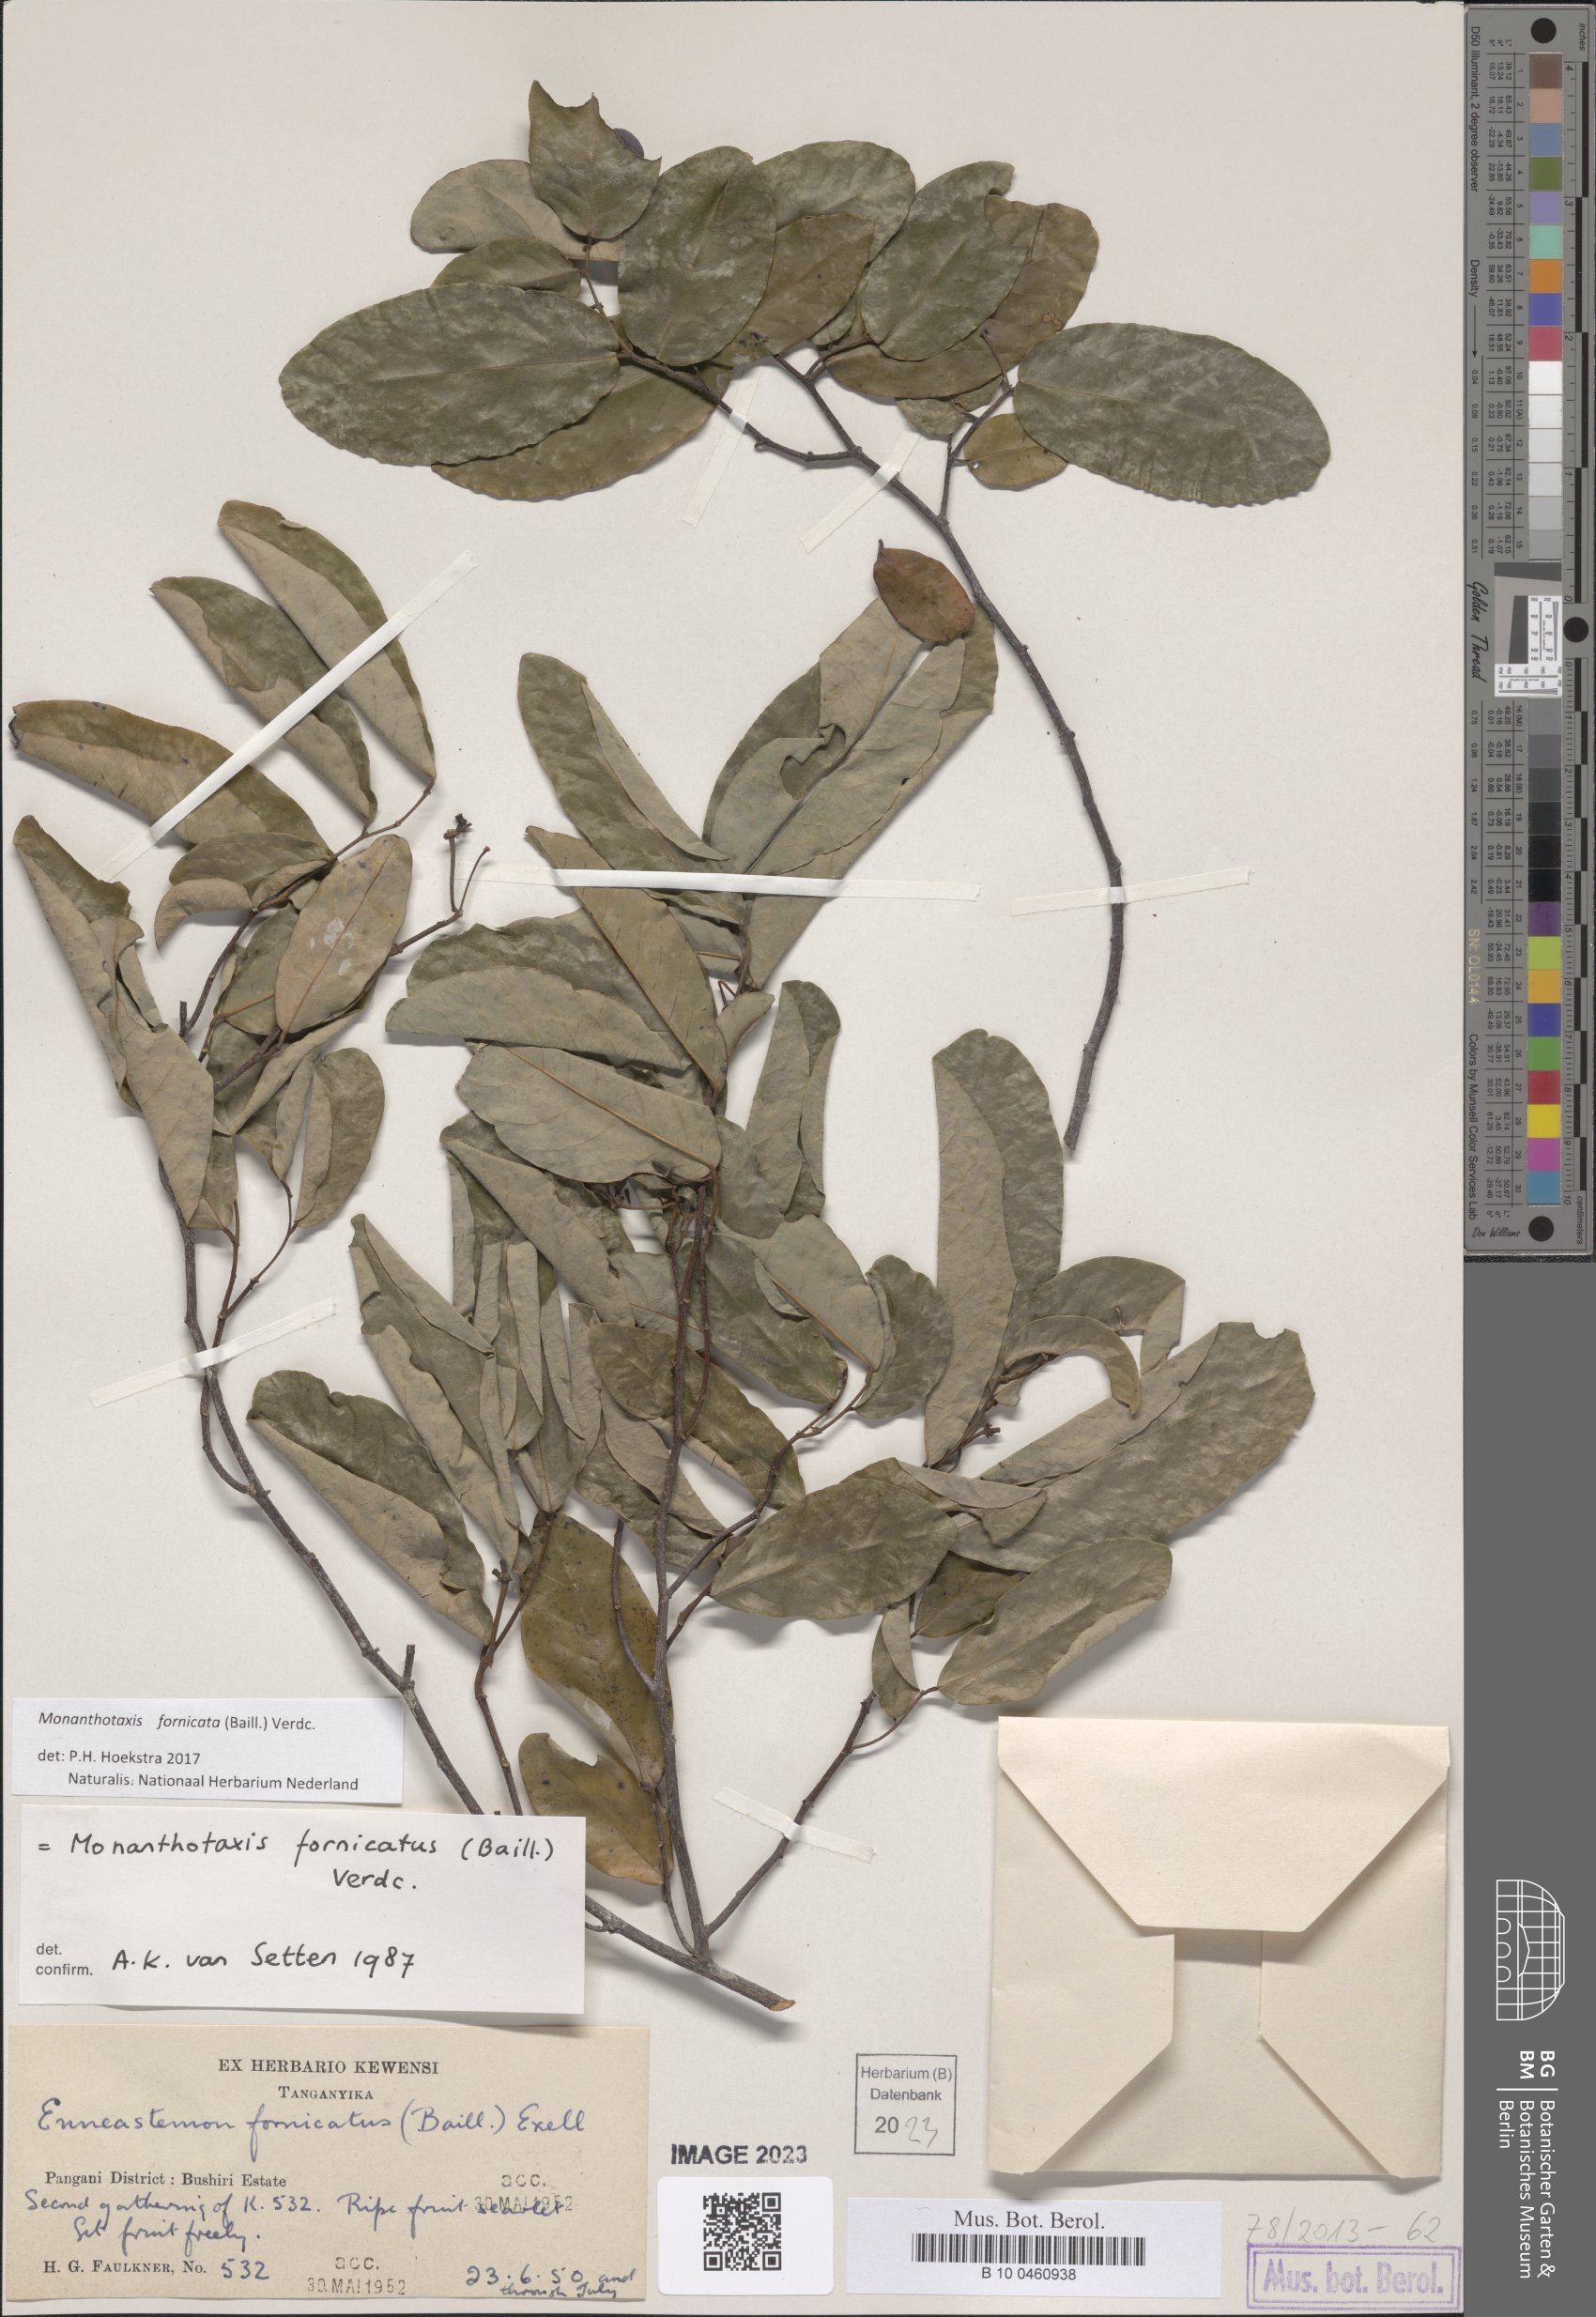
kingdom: Plantae
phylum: Tracheophyta
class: Magnoliopsida
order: Magnoliales
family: Annonaceae
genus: Monanthotaxis
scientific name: Monanthotaxis fornicata
